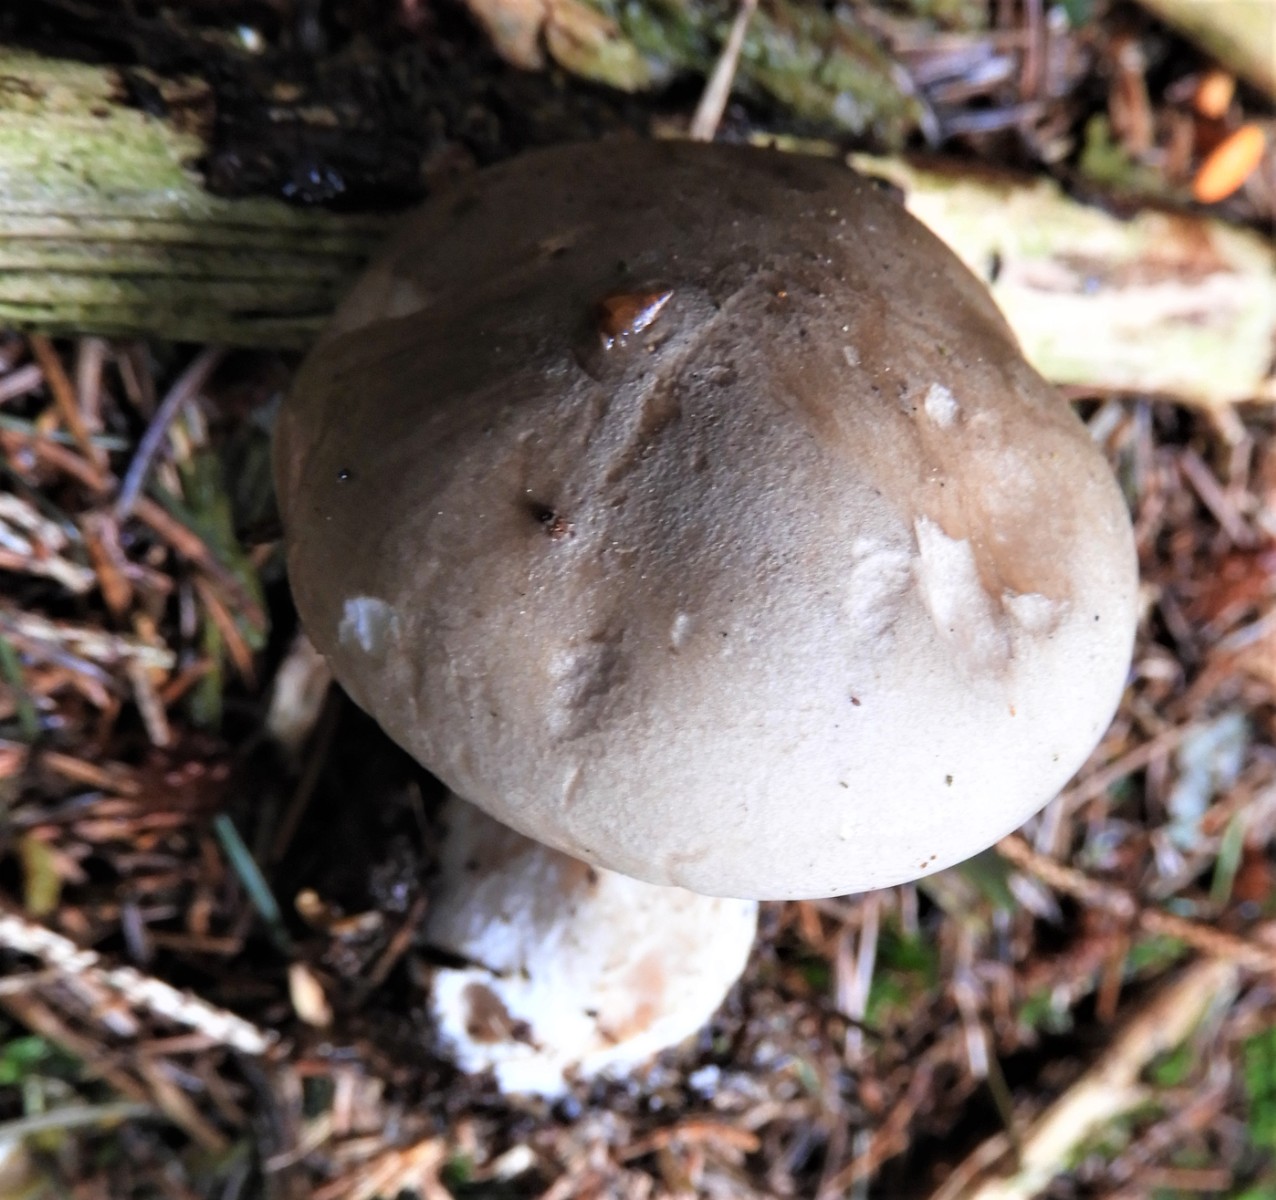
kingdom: Fungi
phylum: Basidiomycota
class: Agaricomycetes
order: Agaricales
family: Tricholomataceae
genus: Clitocybe
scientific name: Clitocybe nebularis
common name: tåge-tragthat
